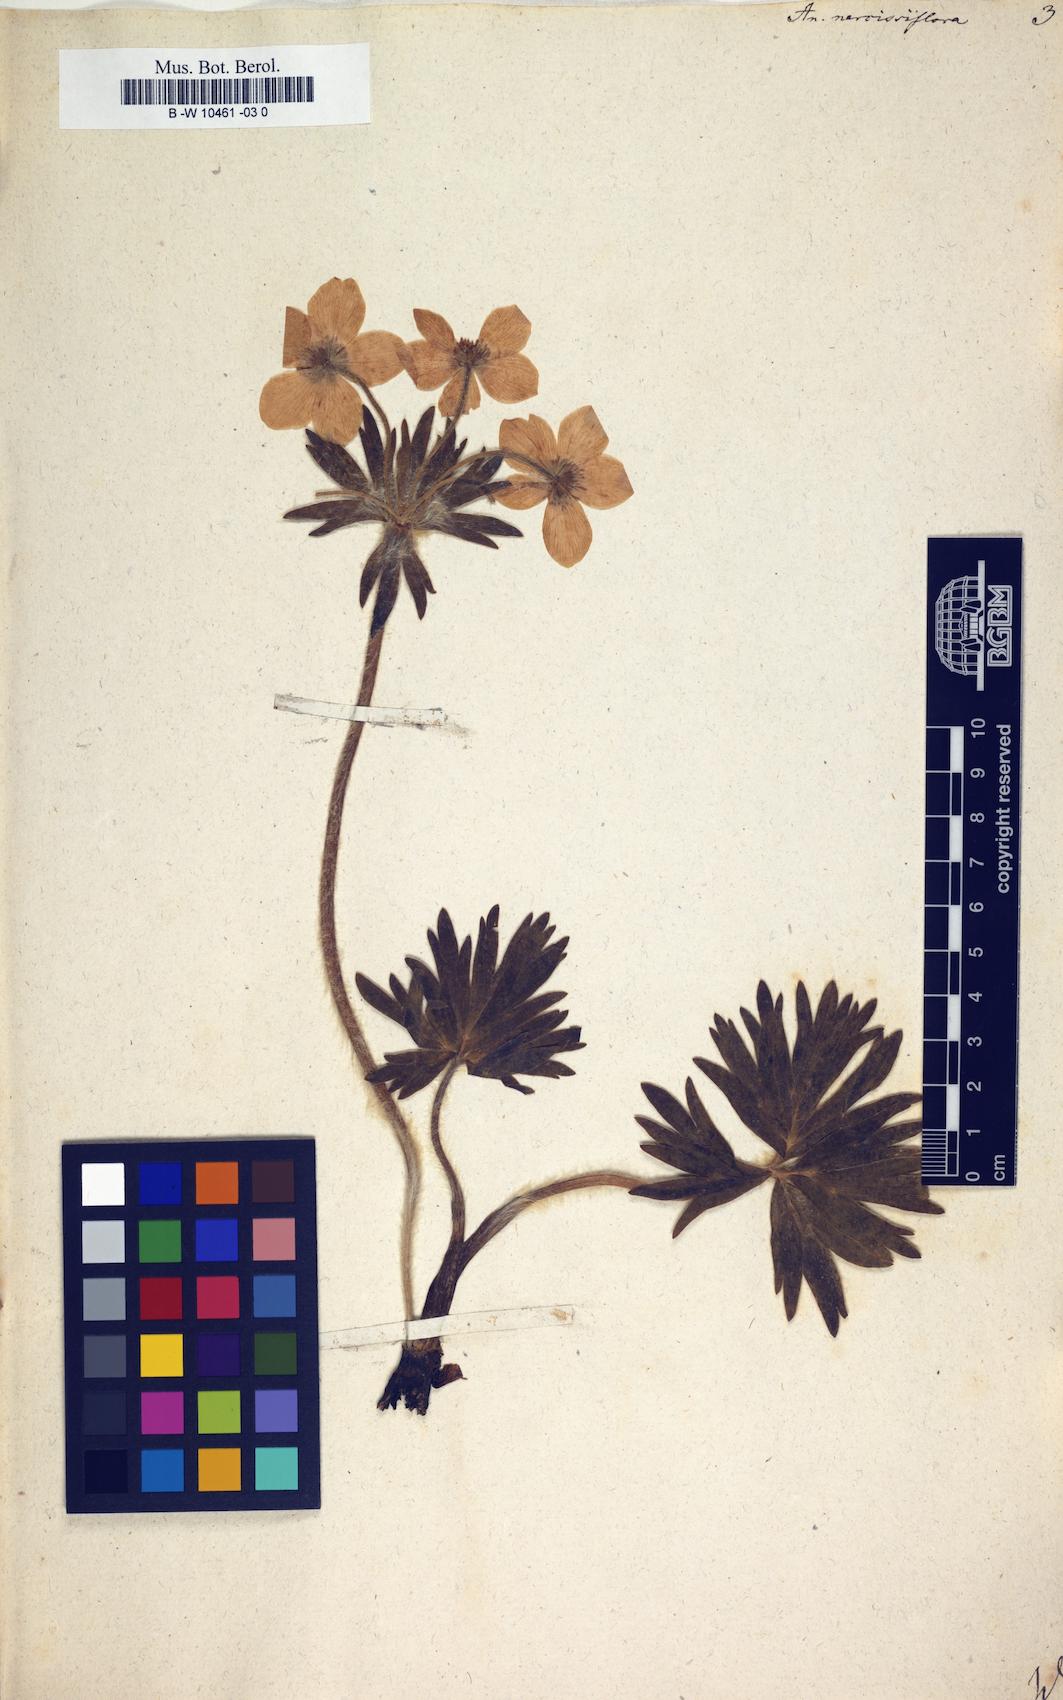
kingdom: Plantae
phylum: Tracheophyta
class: Magnoliopsida
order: Ranunculales
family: Ranunculaceae
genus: Anemonastrum
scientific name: Anemonastrum narcissiflorum
